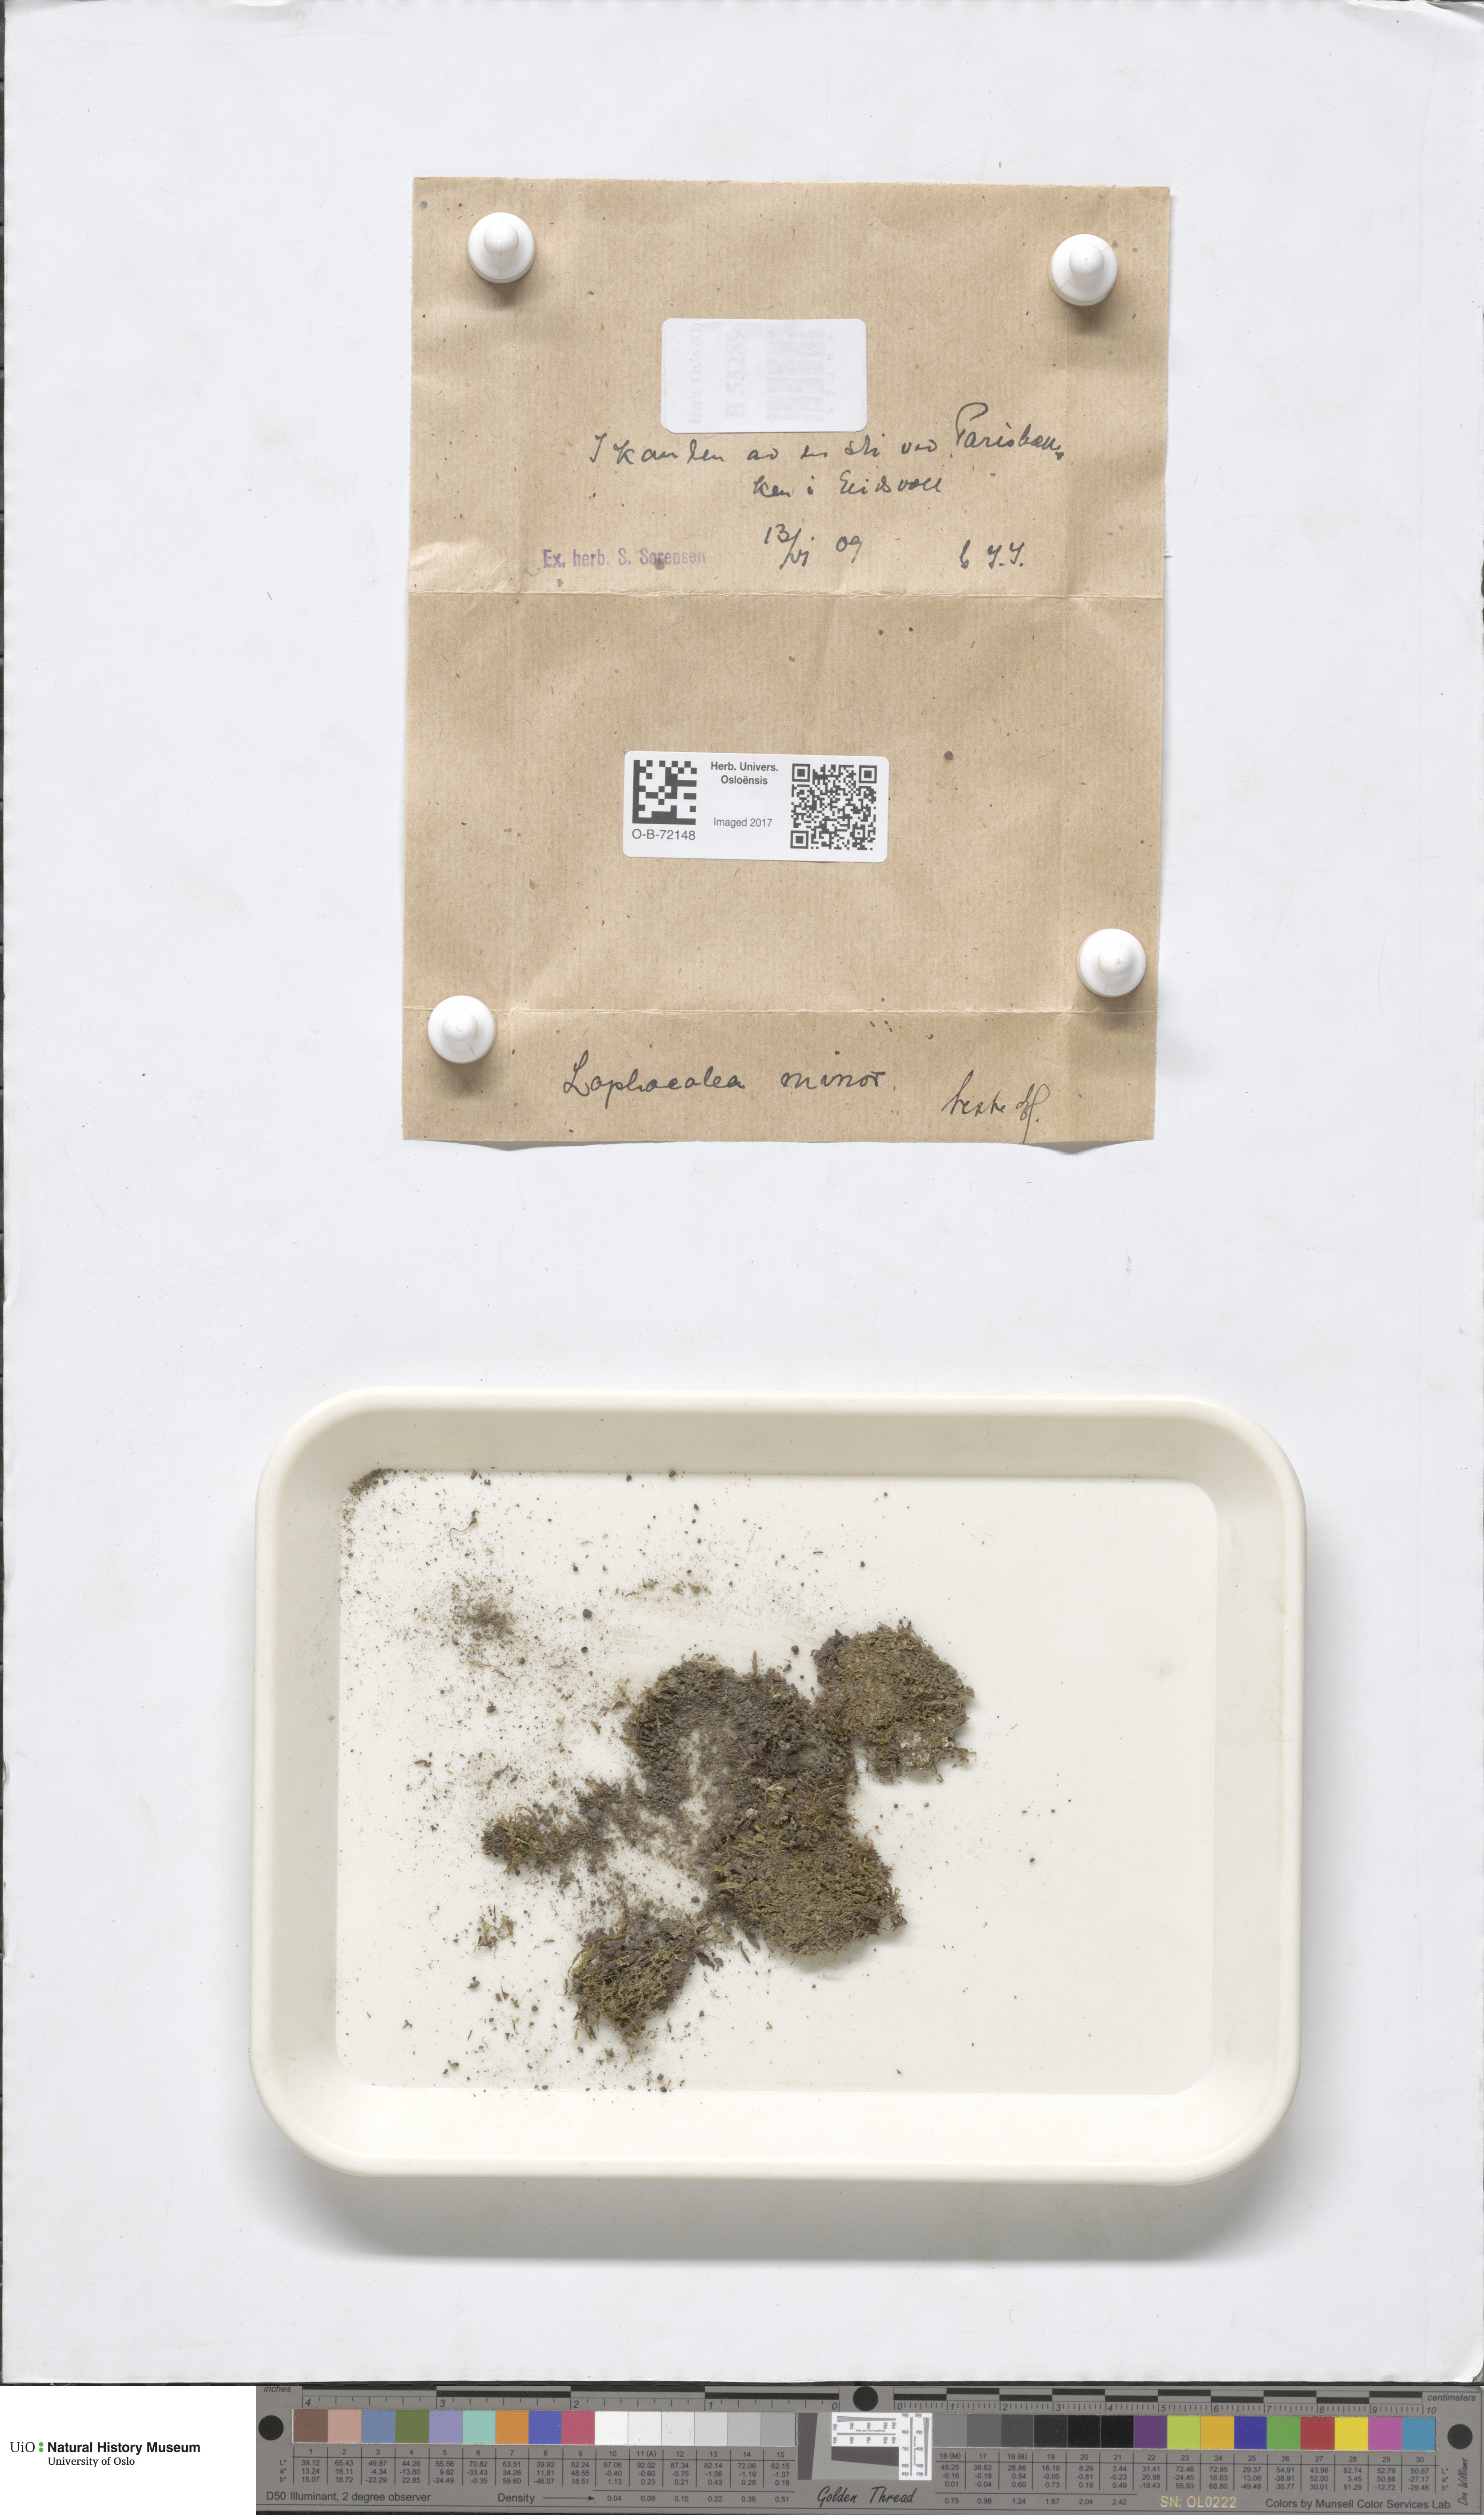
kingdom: Plantae
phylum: Marchantiophyta
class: Jungermanniopsida
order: Jungermanniales
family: Lophocoleaceae
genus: Lophocolea
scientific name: Lophocolea minor
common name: Lesser crestwort
